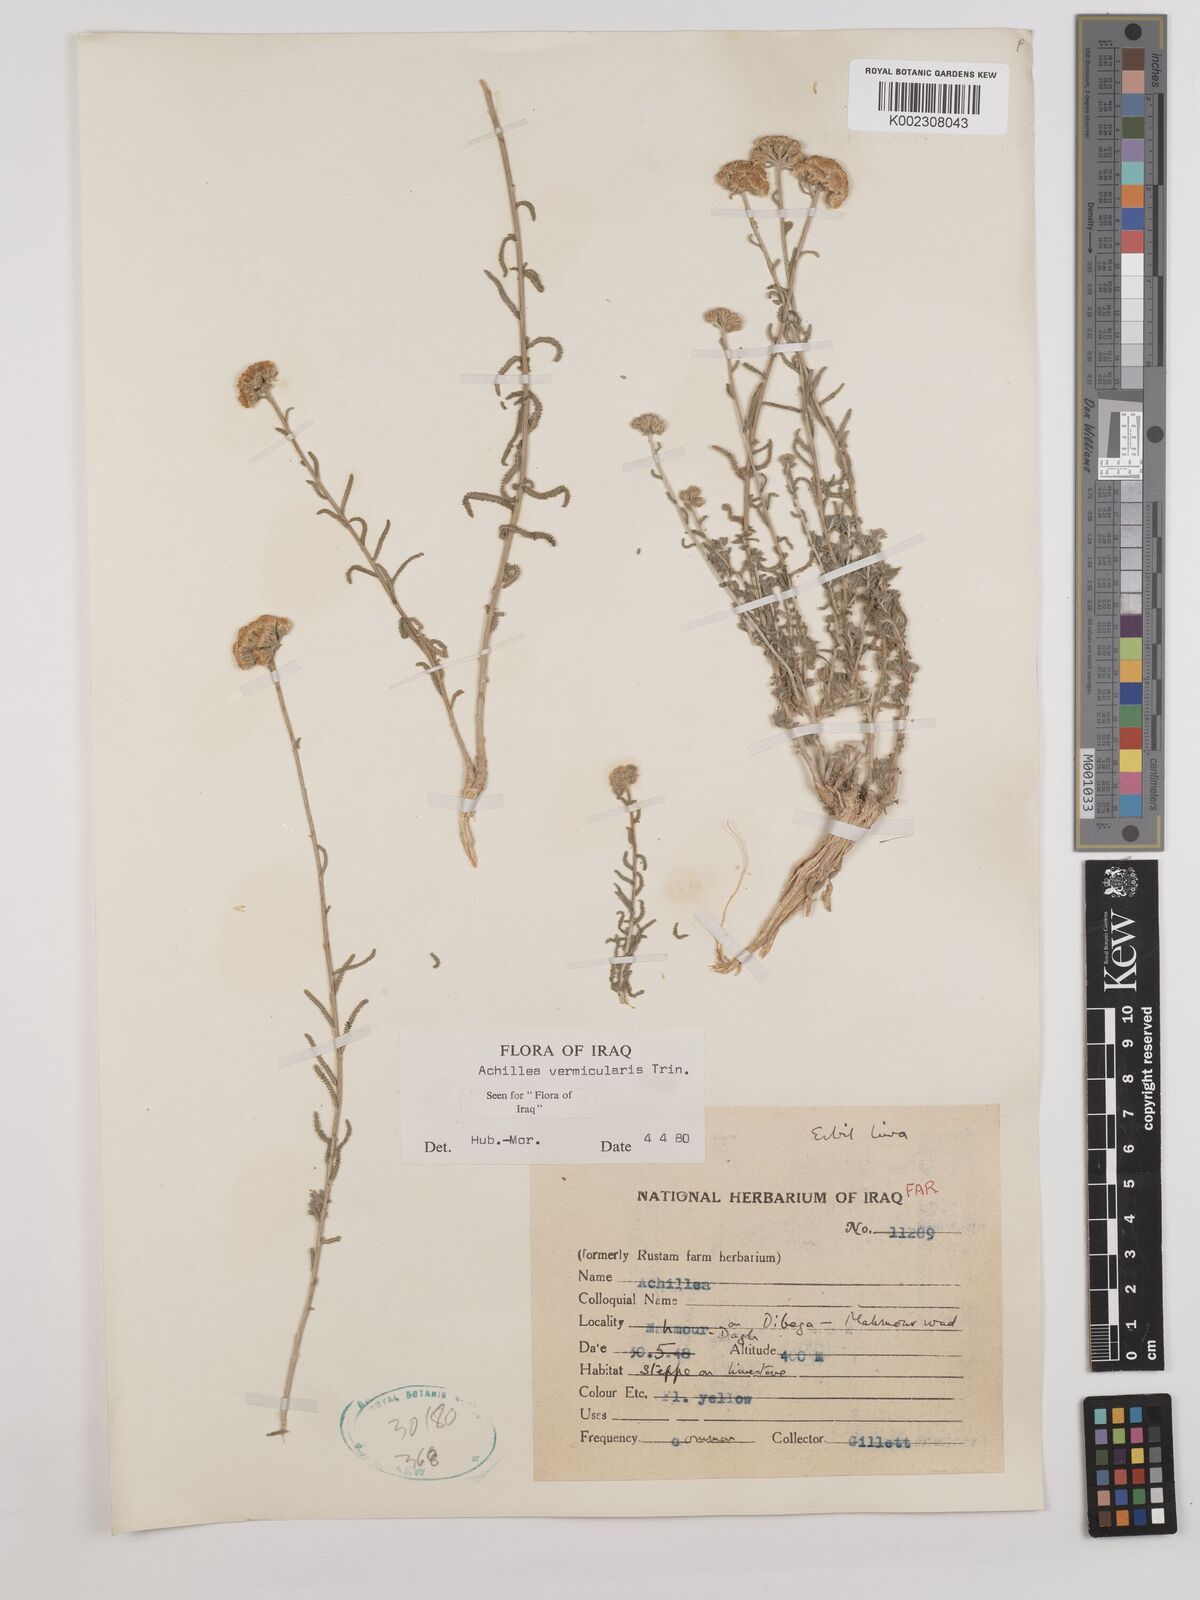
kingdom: Plantae
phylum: Tracheophyta
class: Magnoliopsida
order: Asterales
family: Asteraceae
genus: Achillea
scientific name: Achillea vermicularis
